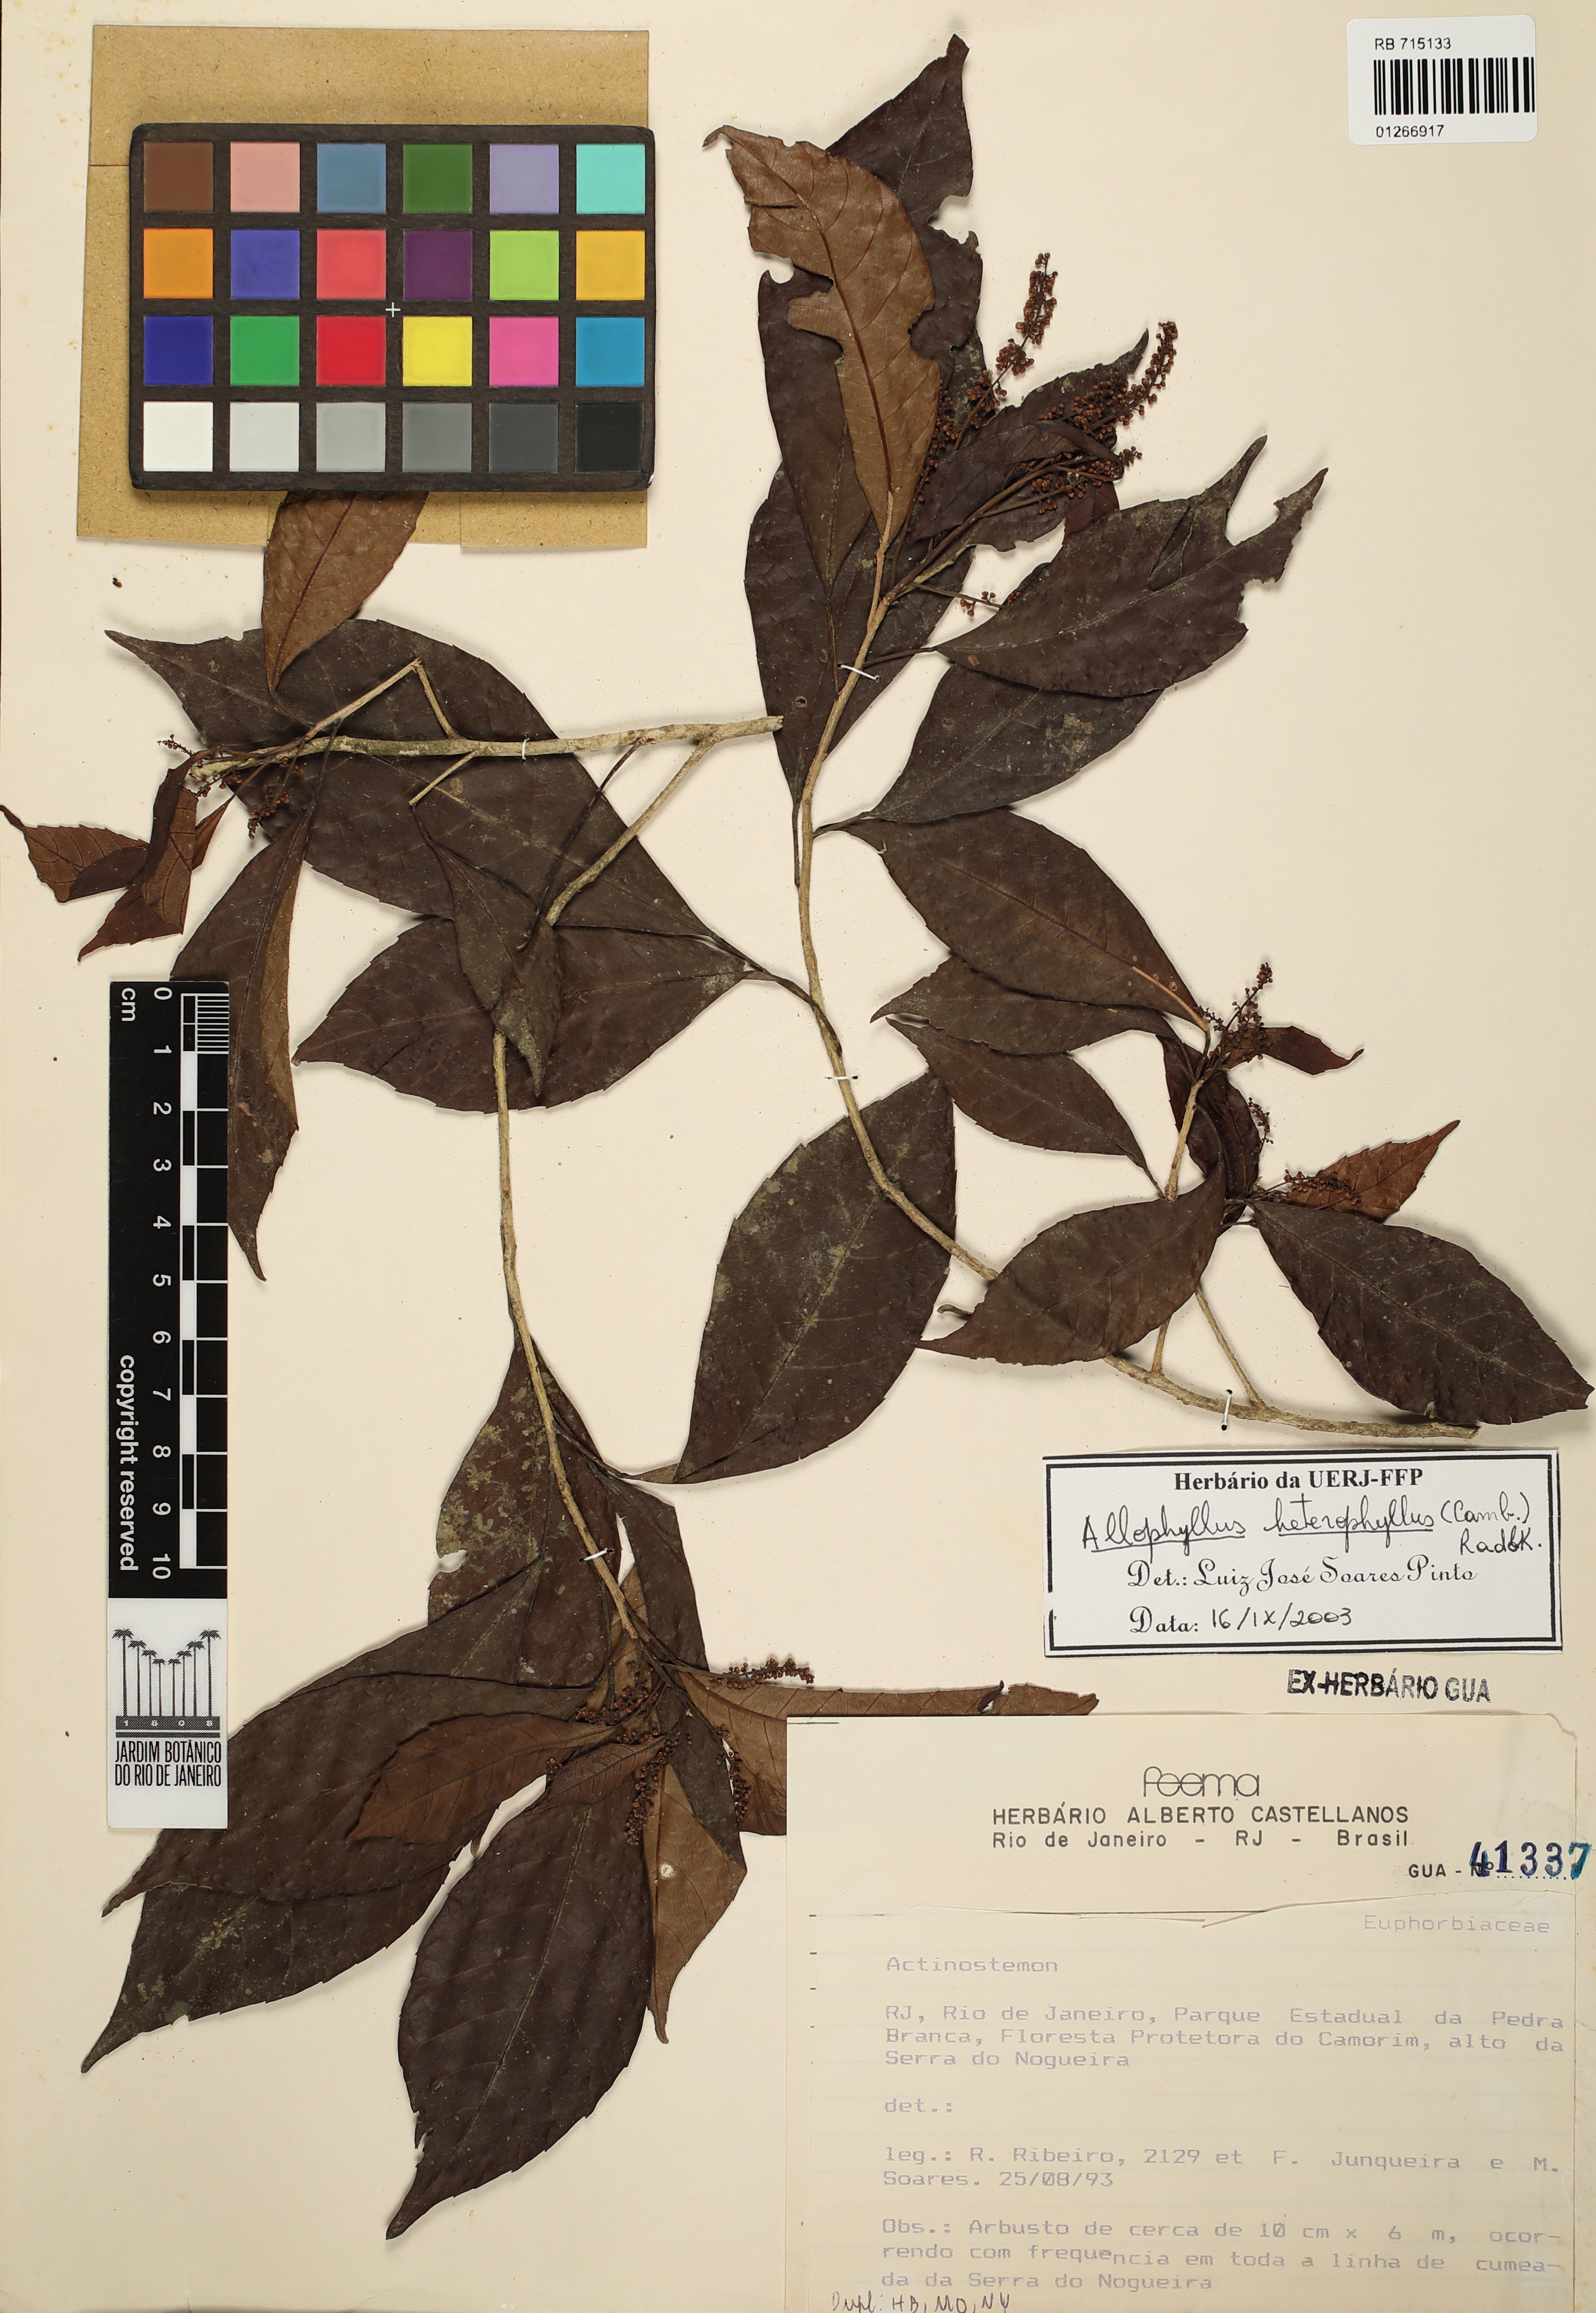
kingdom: Plantae
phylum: Tracheophyta
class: Magnoliopsida
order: Sapindales
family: Sapindaceae
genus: Allophylus
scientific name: Allophylus heterophyllus
